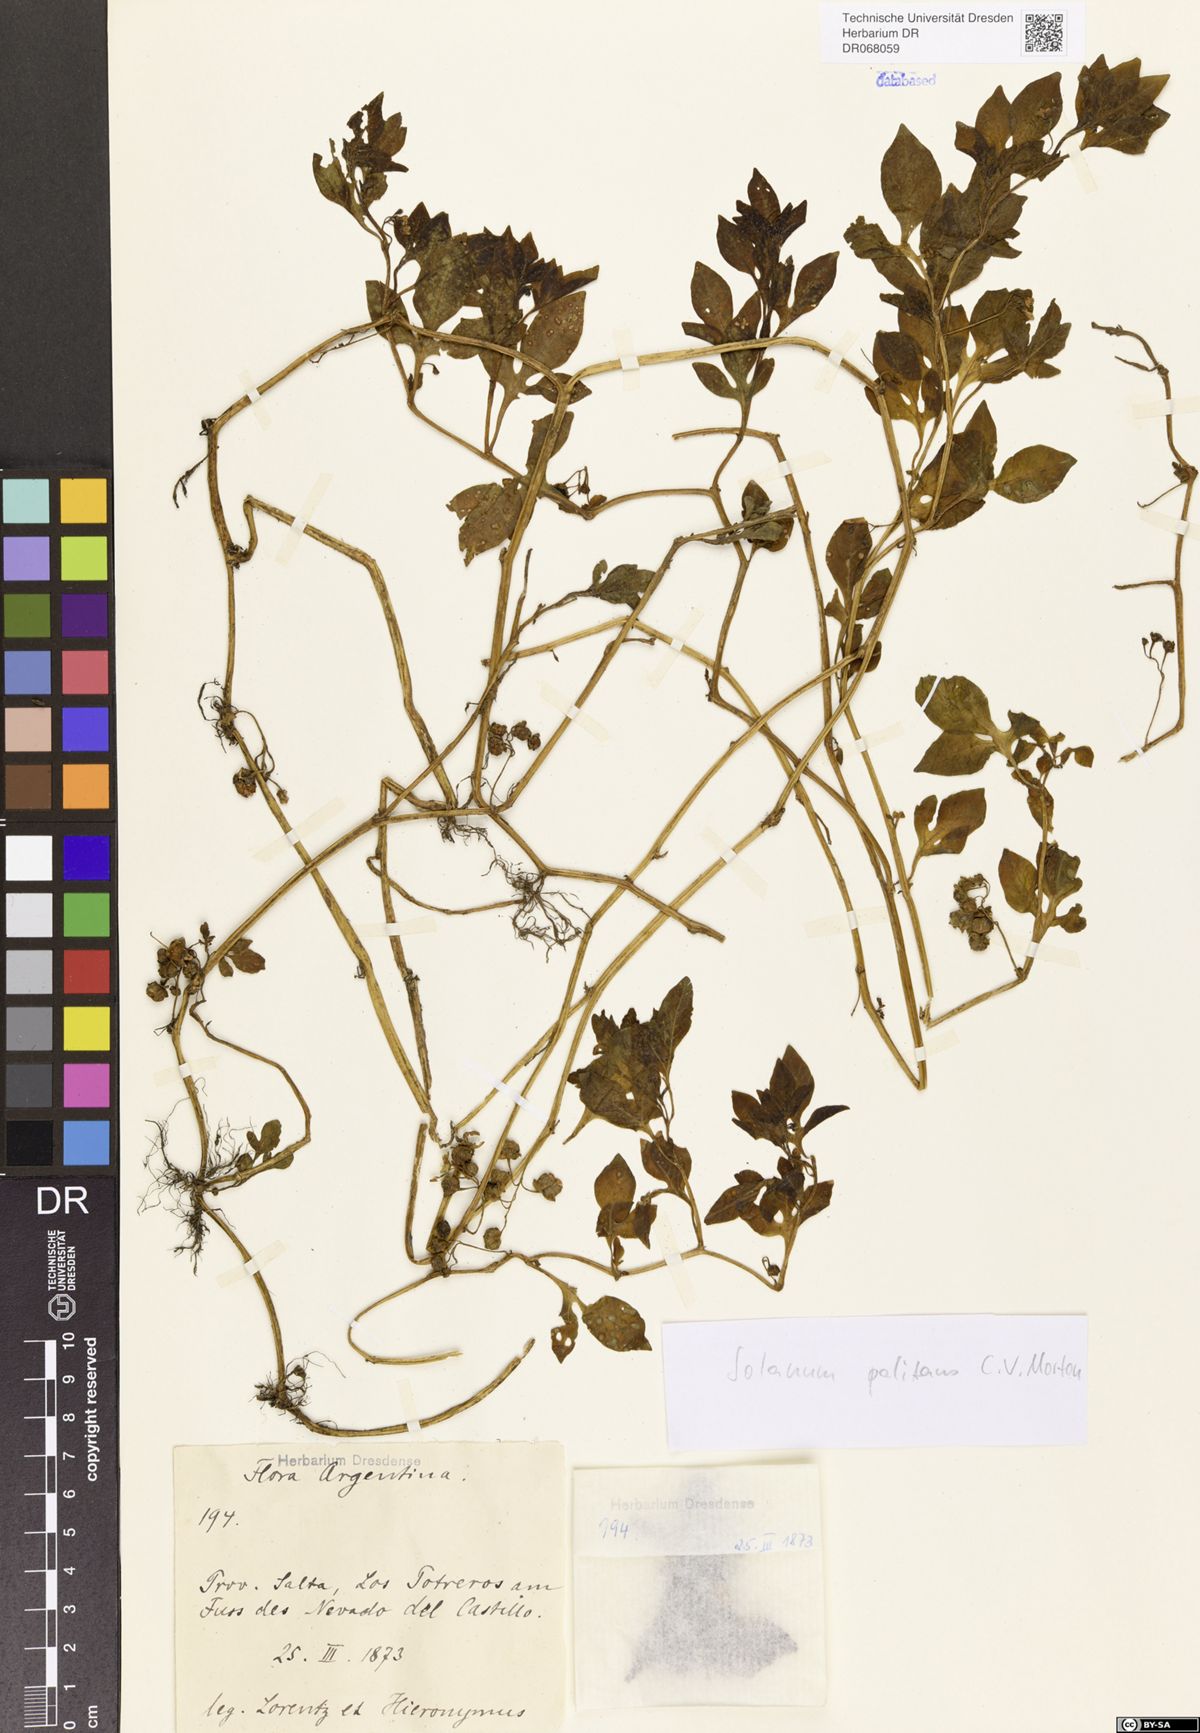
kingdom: Plantae
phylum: Tracheophyta
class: Magnoliopsida
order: Solanales
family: Solanaceae
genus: Solanum
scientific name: Solanum palitans
